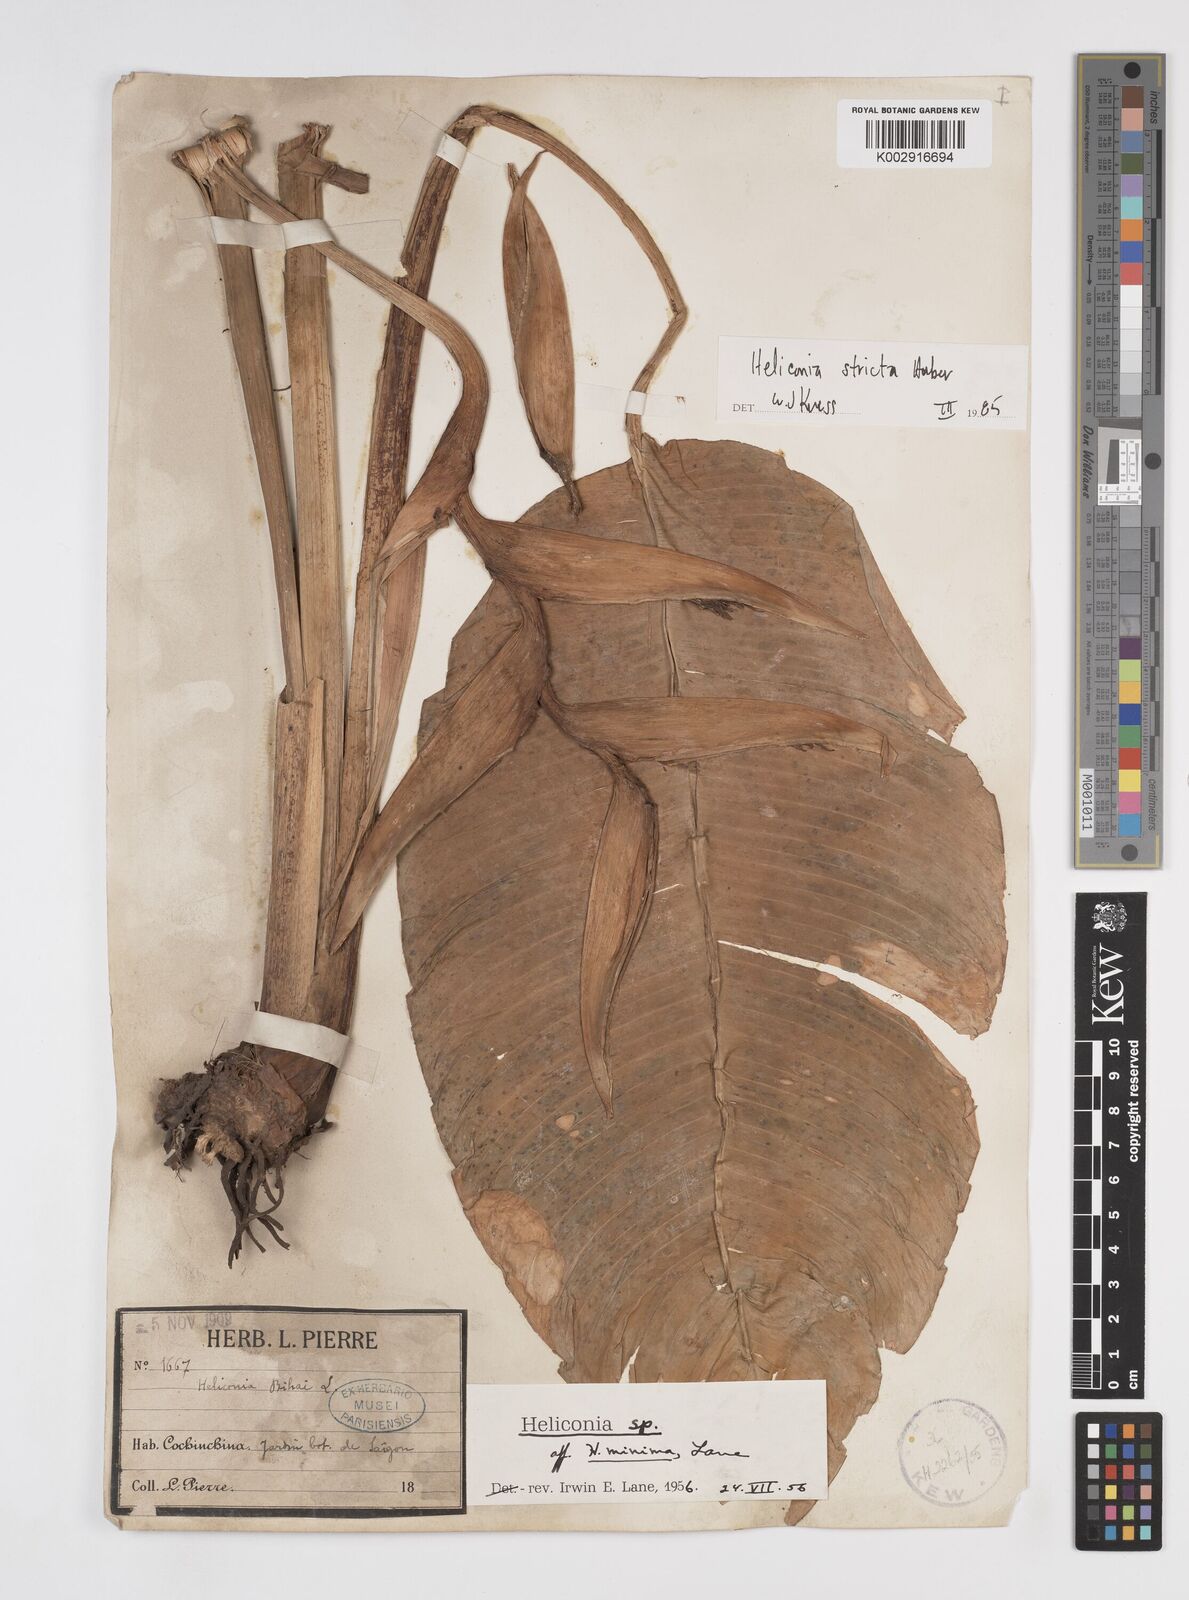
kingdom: Plantae
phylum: Tracheophyta
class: Liliopsida
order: Zingiberales
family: Heliconiaceae
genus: Heliconia
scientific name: Heliconia stricta
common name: Small lobster claw
